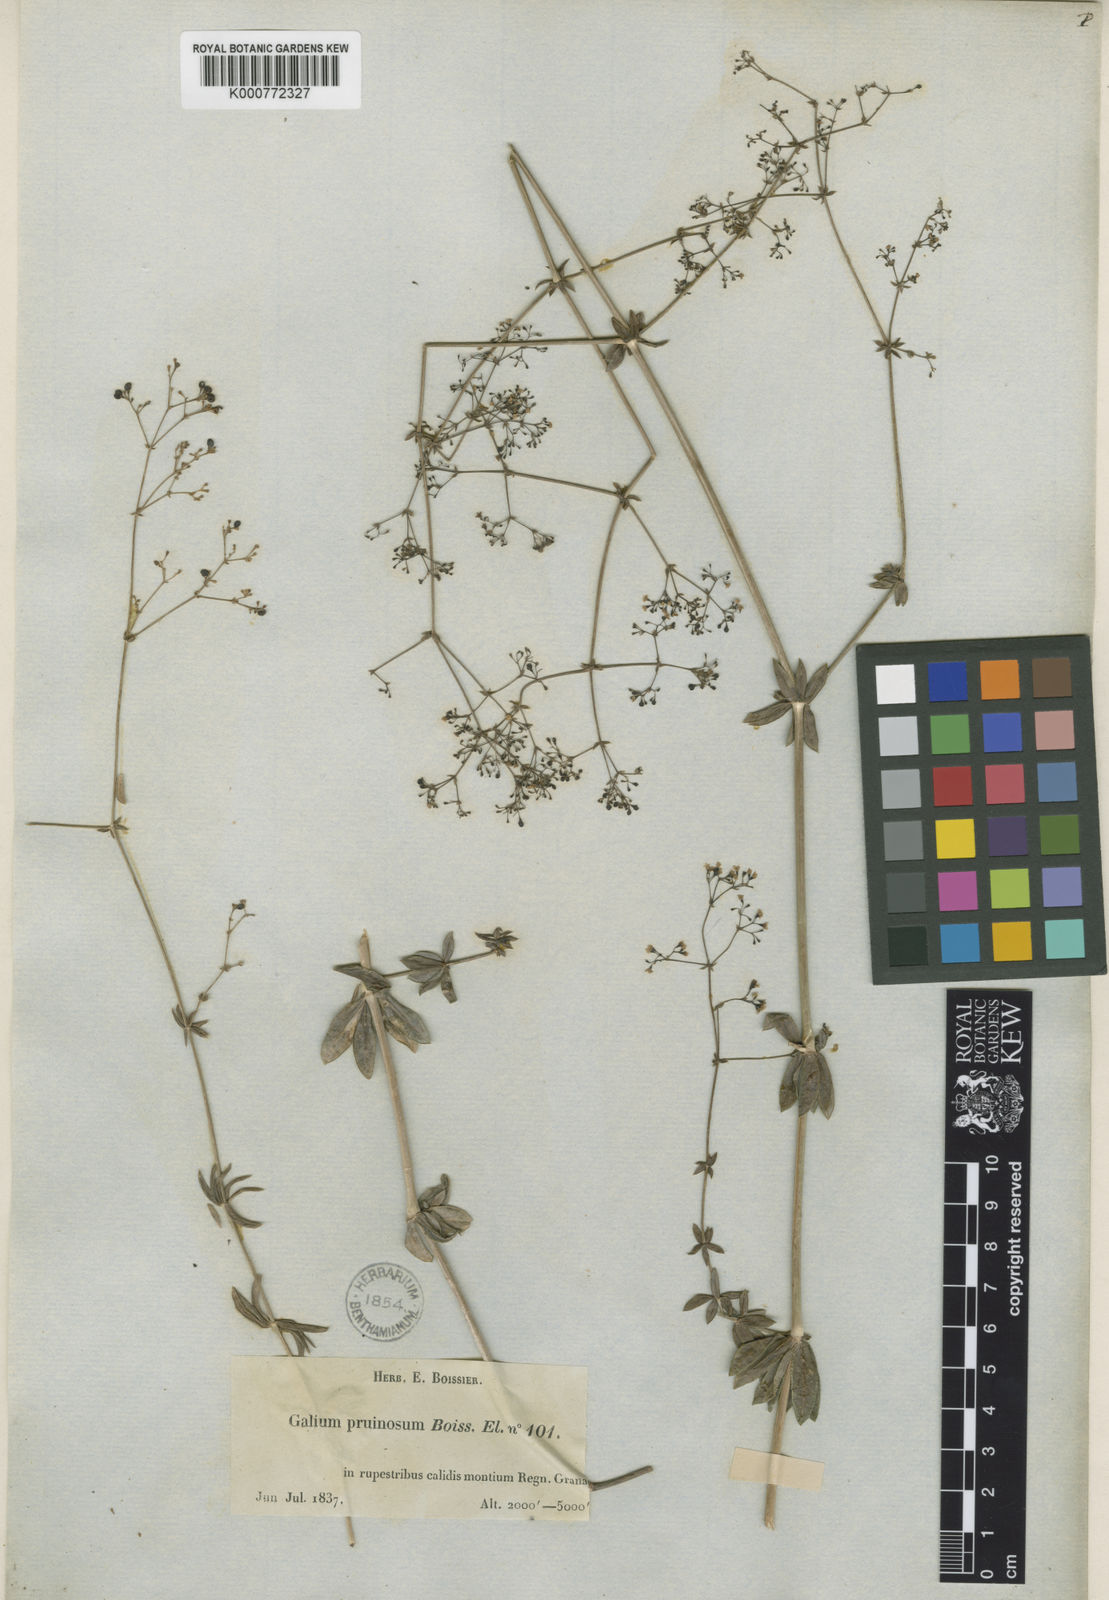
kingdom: Plantae
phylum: Tracheophyta
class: Magnoliopsida
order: Gentianales
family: Rubiaceae
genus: Galium
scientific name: Galium pruinosum
